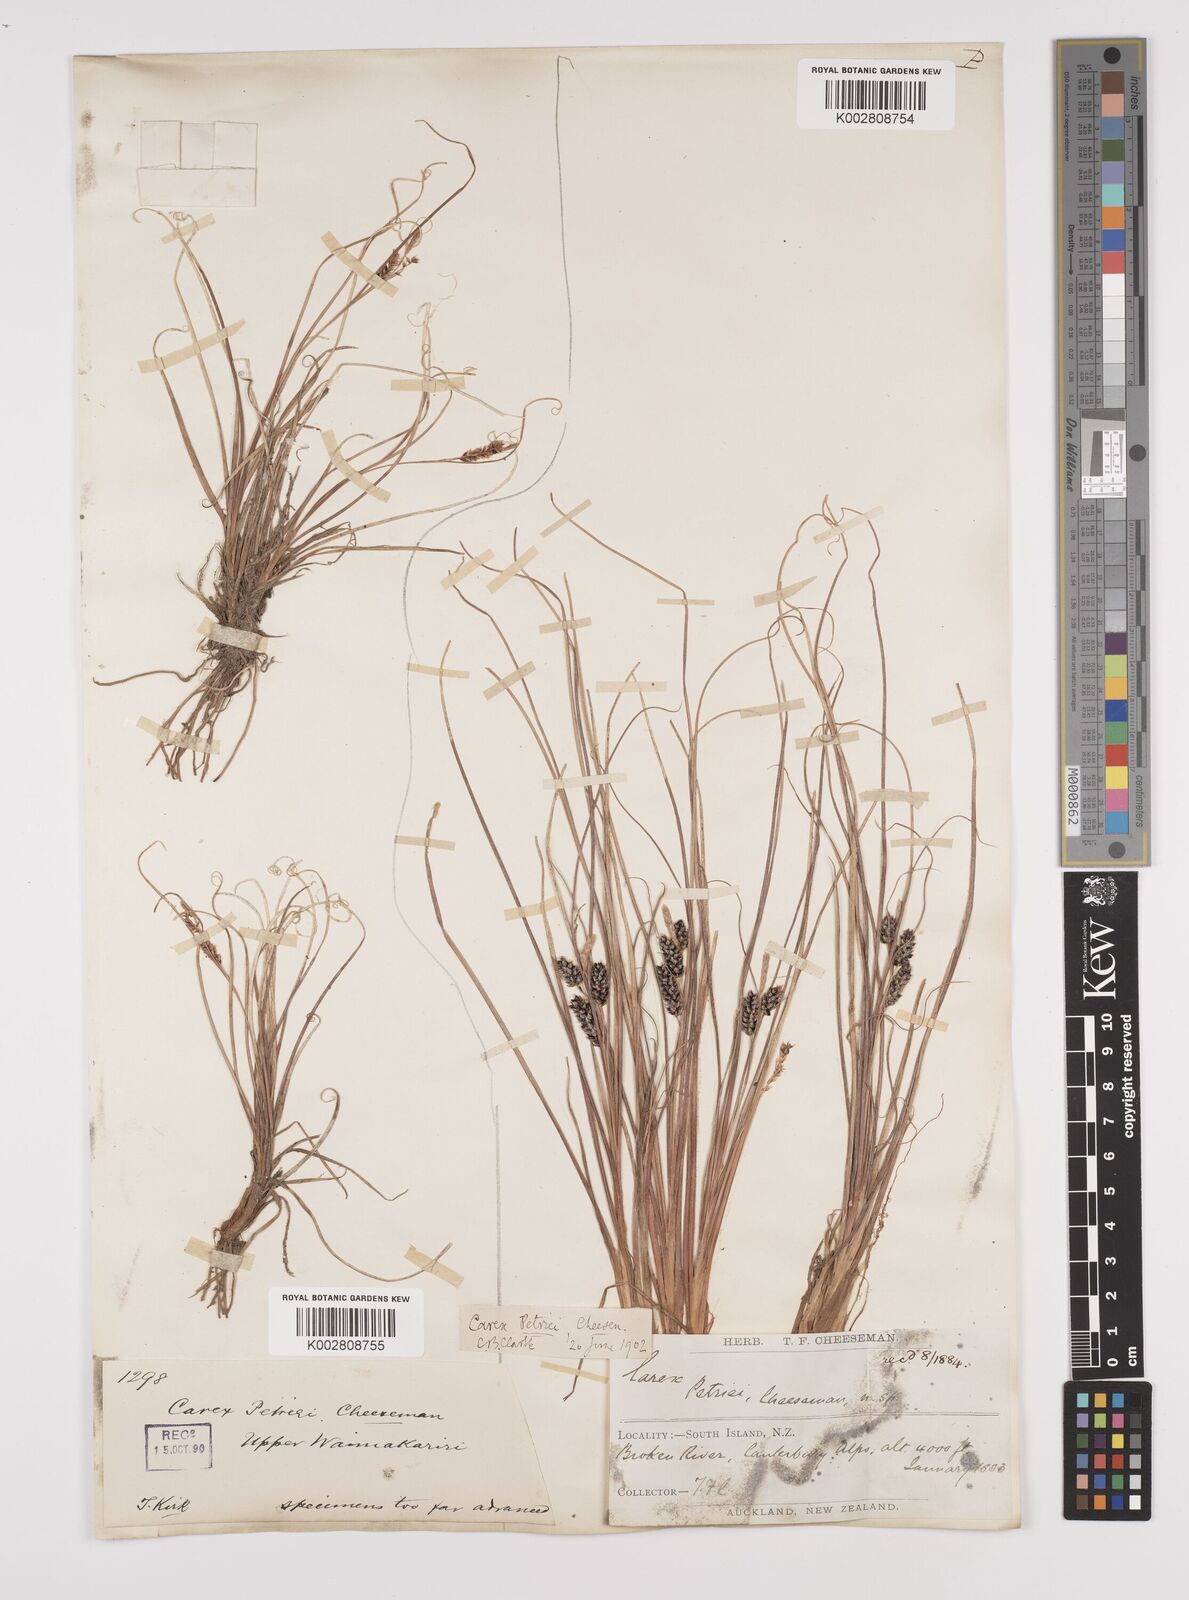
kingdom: Plantae
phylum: Tracheophyta
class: Liliopsida
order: Poales
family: Cyperaceae
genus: Carex
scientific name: Carex petriei
